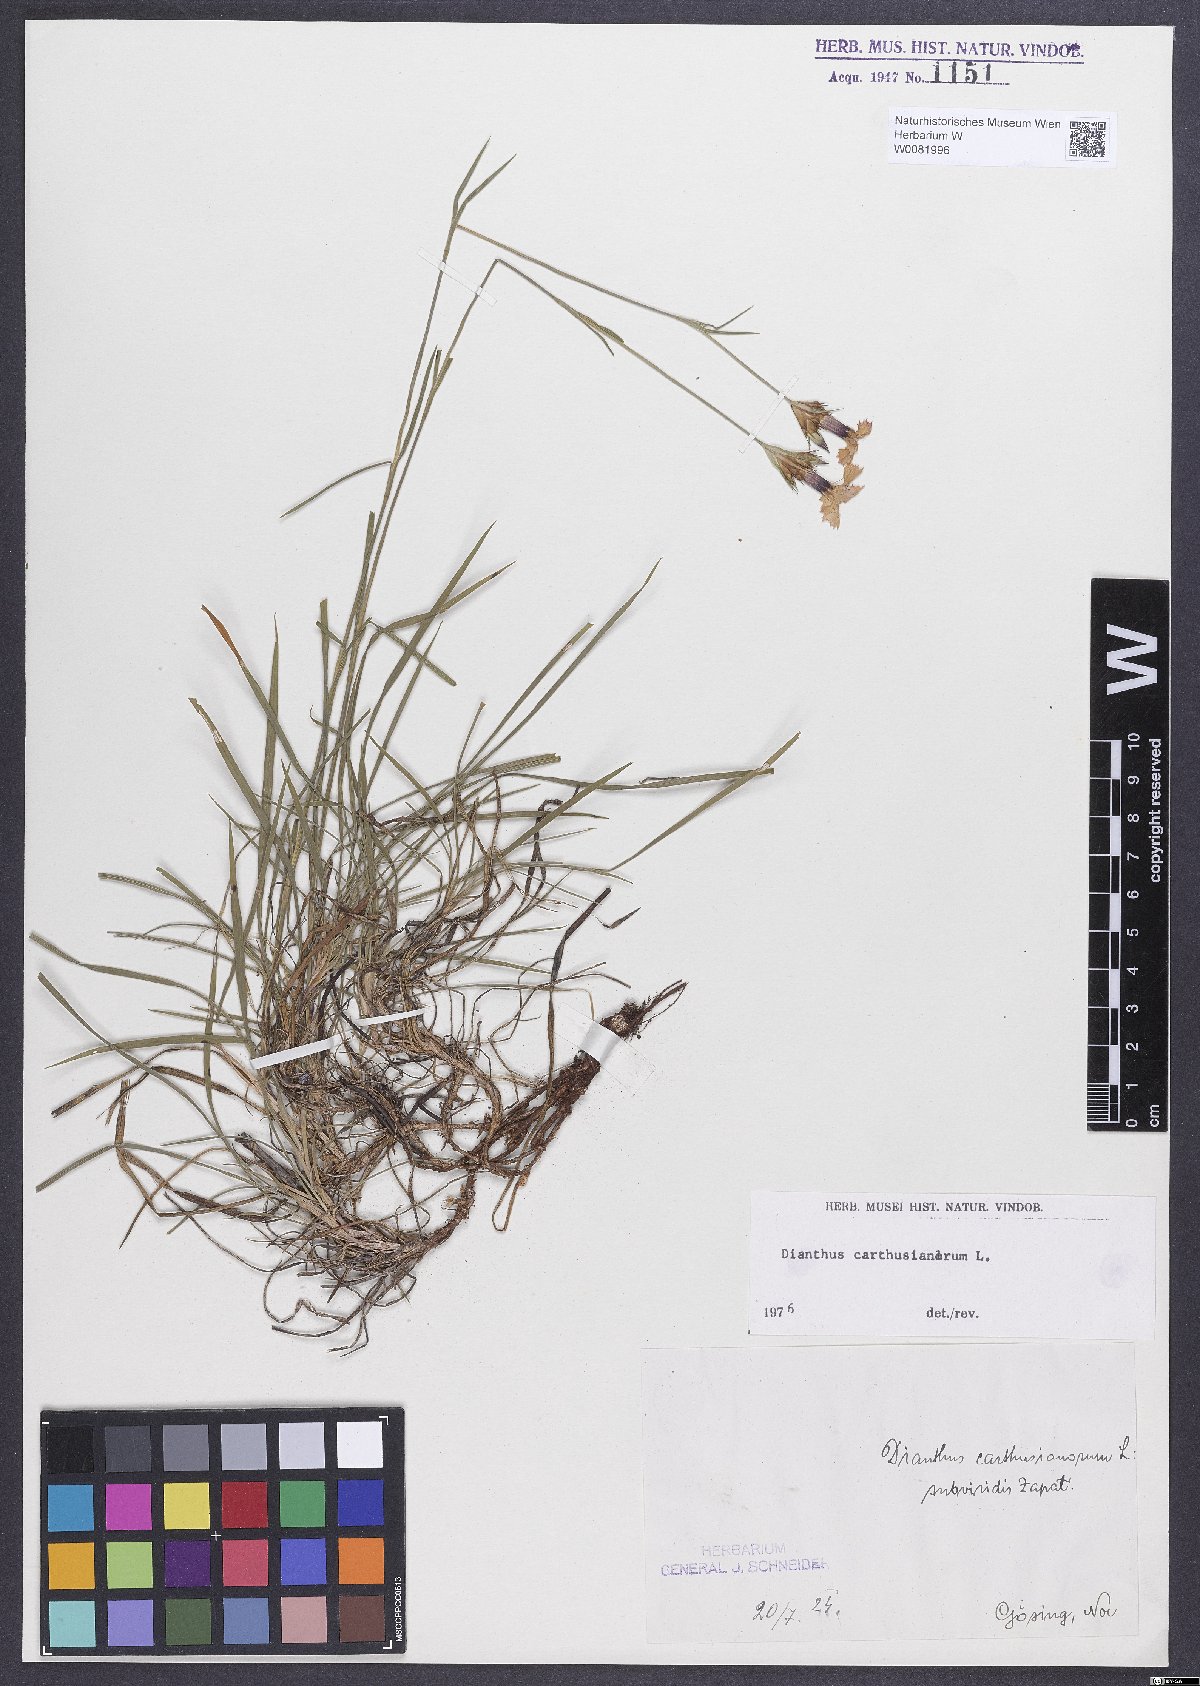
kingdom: Plantae
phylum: Tracheophyta
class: Magnoliopsida
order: Caryophyllales
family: Caryophyllaceae
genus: Dianthus
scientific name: Dianthus carthusianorum
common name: Carthusian pink
